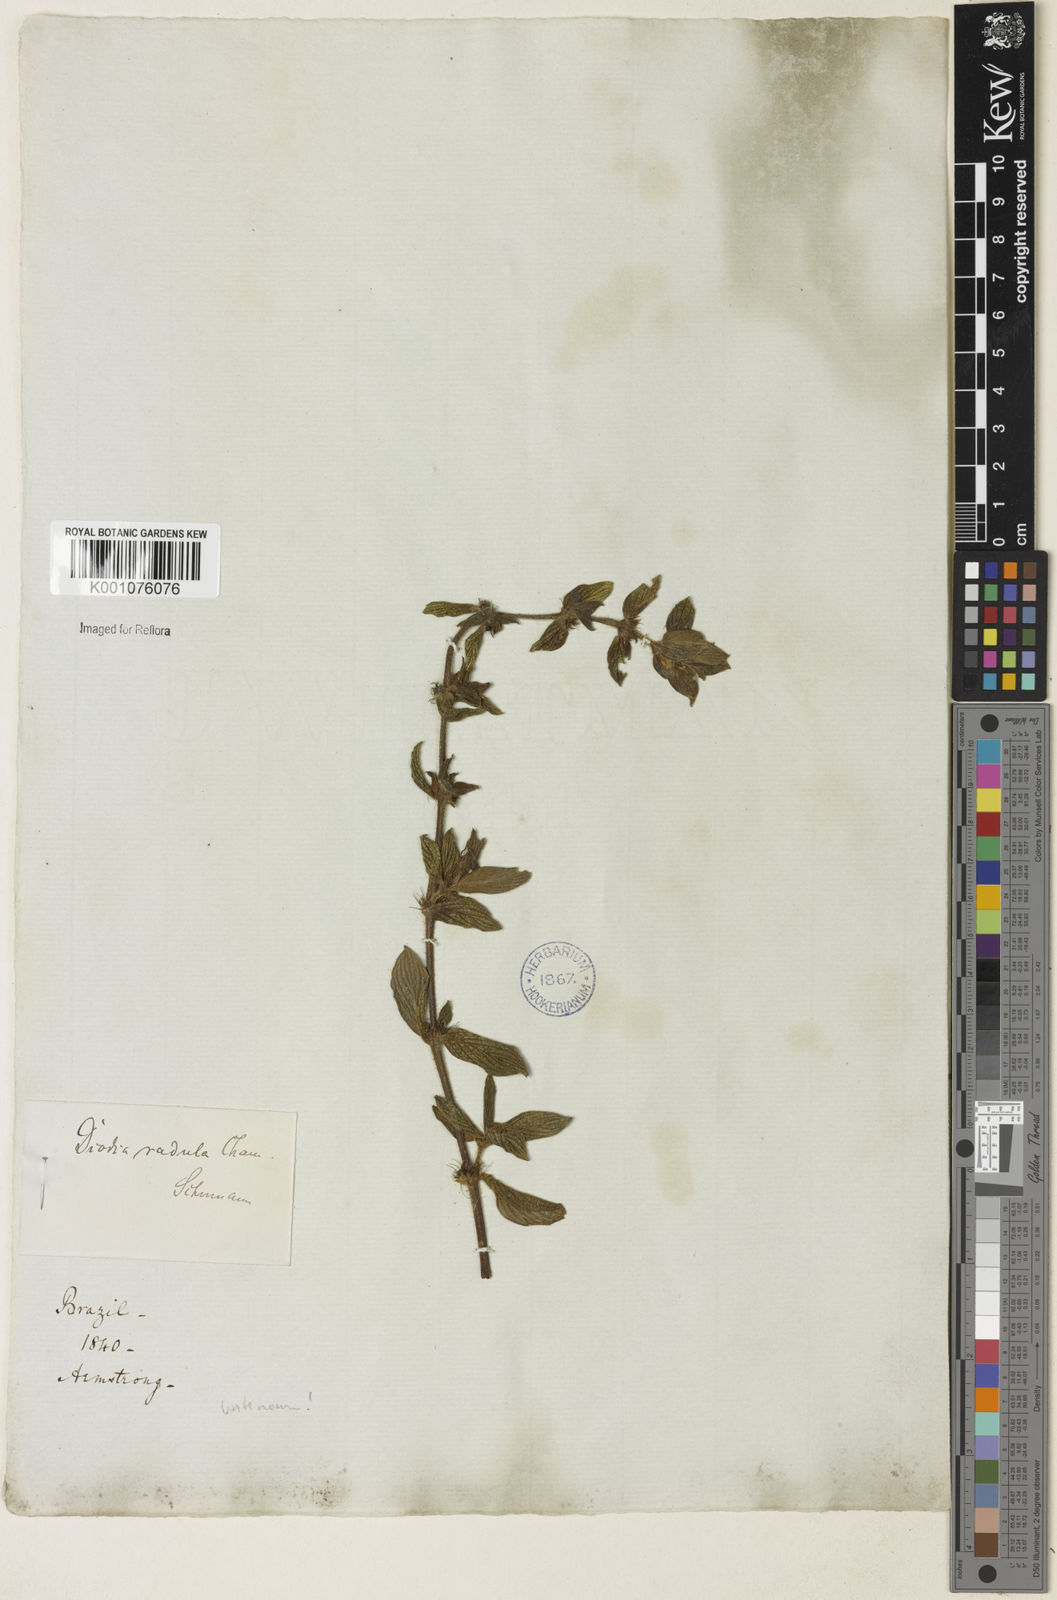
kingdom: Plantae
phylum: Tracheophyta
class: Magnoliopsida
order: Gentianales
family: Rubiaceae
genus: Hexasepalum
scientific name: Hexasepalum radulum
